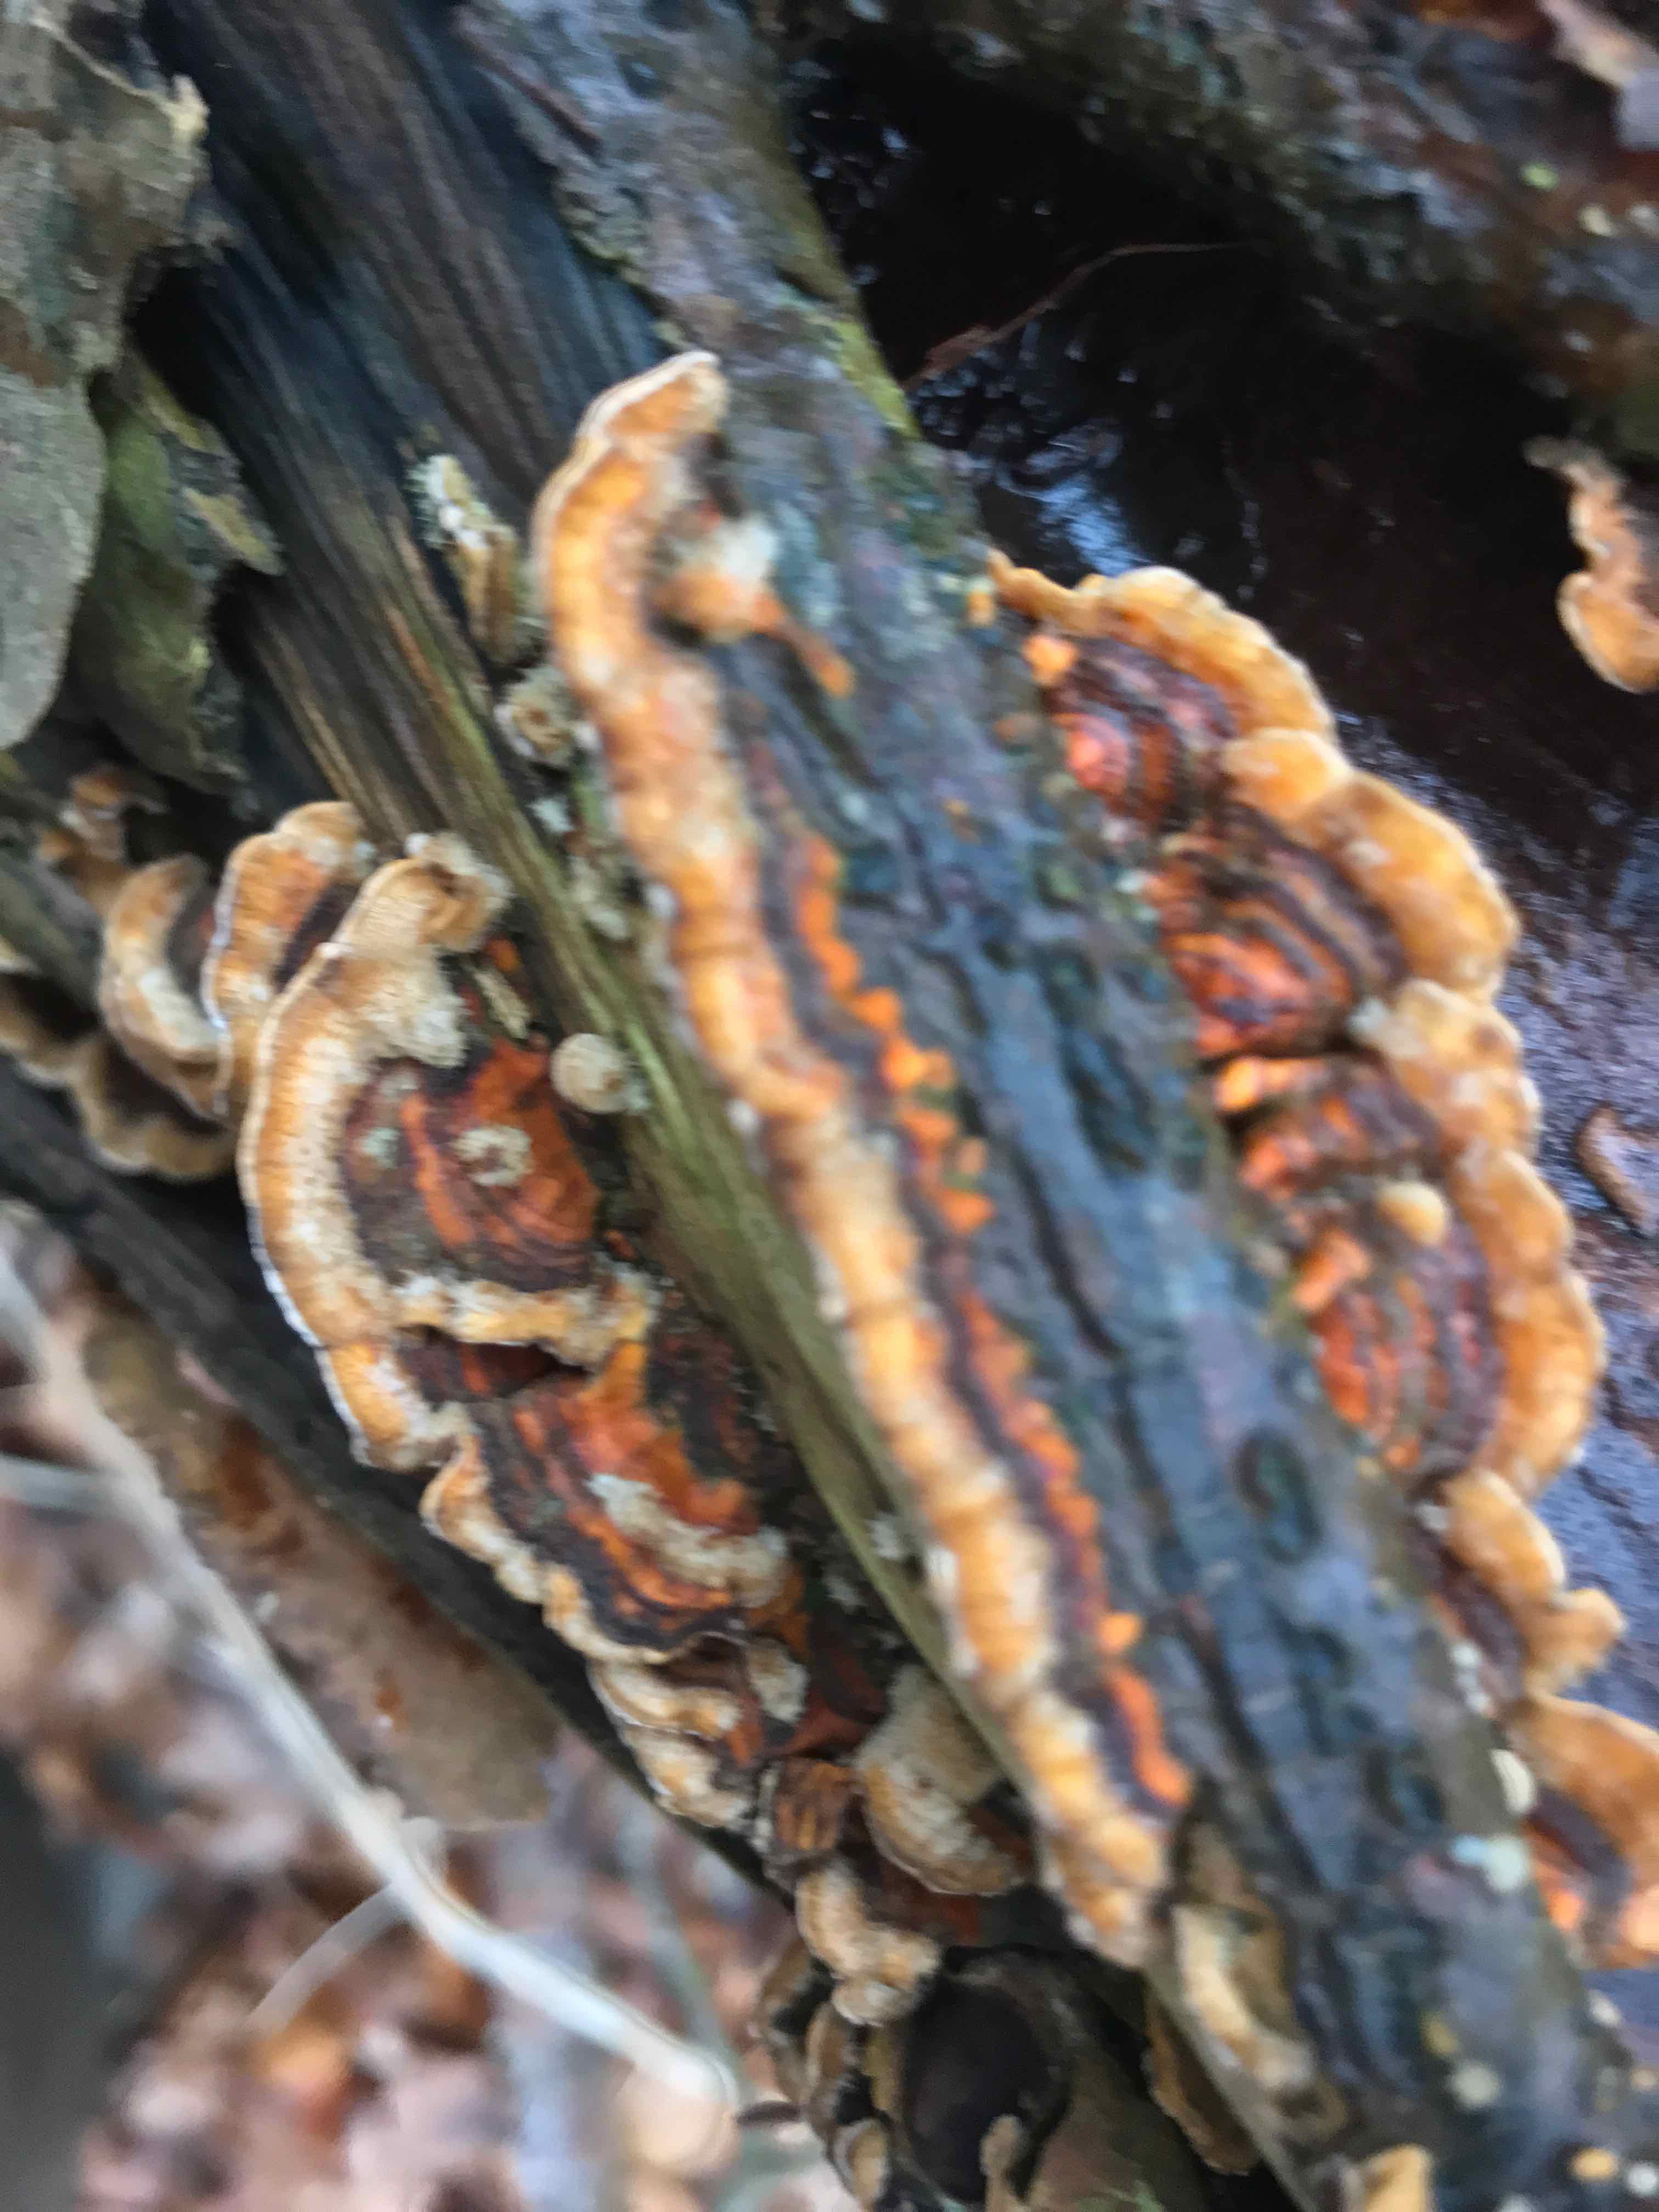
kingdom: Fungi
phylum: Basidiomycota
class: Agaricomycetes
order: Russulales
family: Stereaceae
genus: Stereum
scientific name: Stereum subtomentosum
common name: smuk lædersvamp
